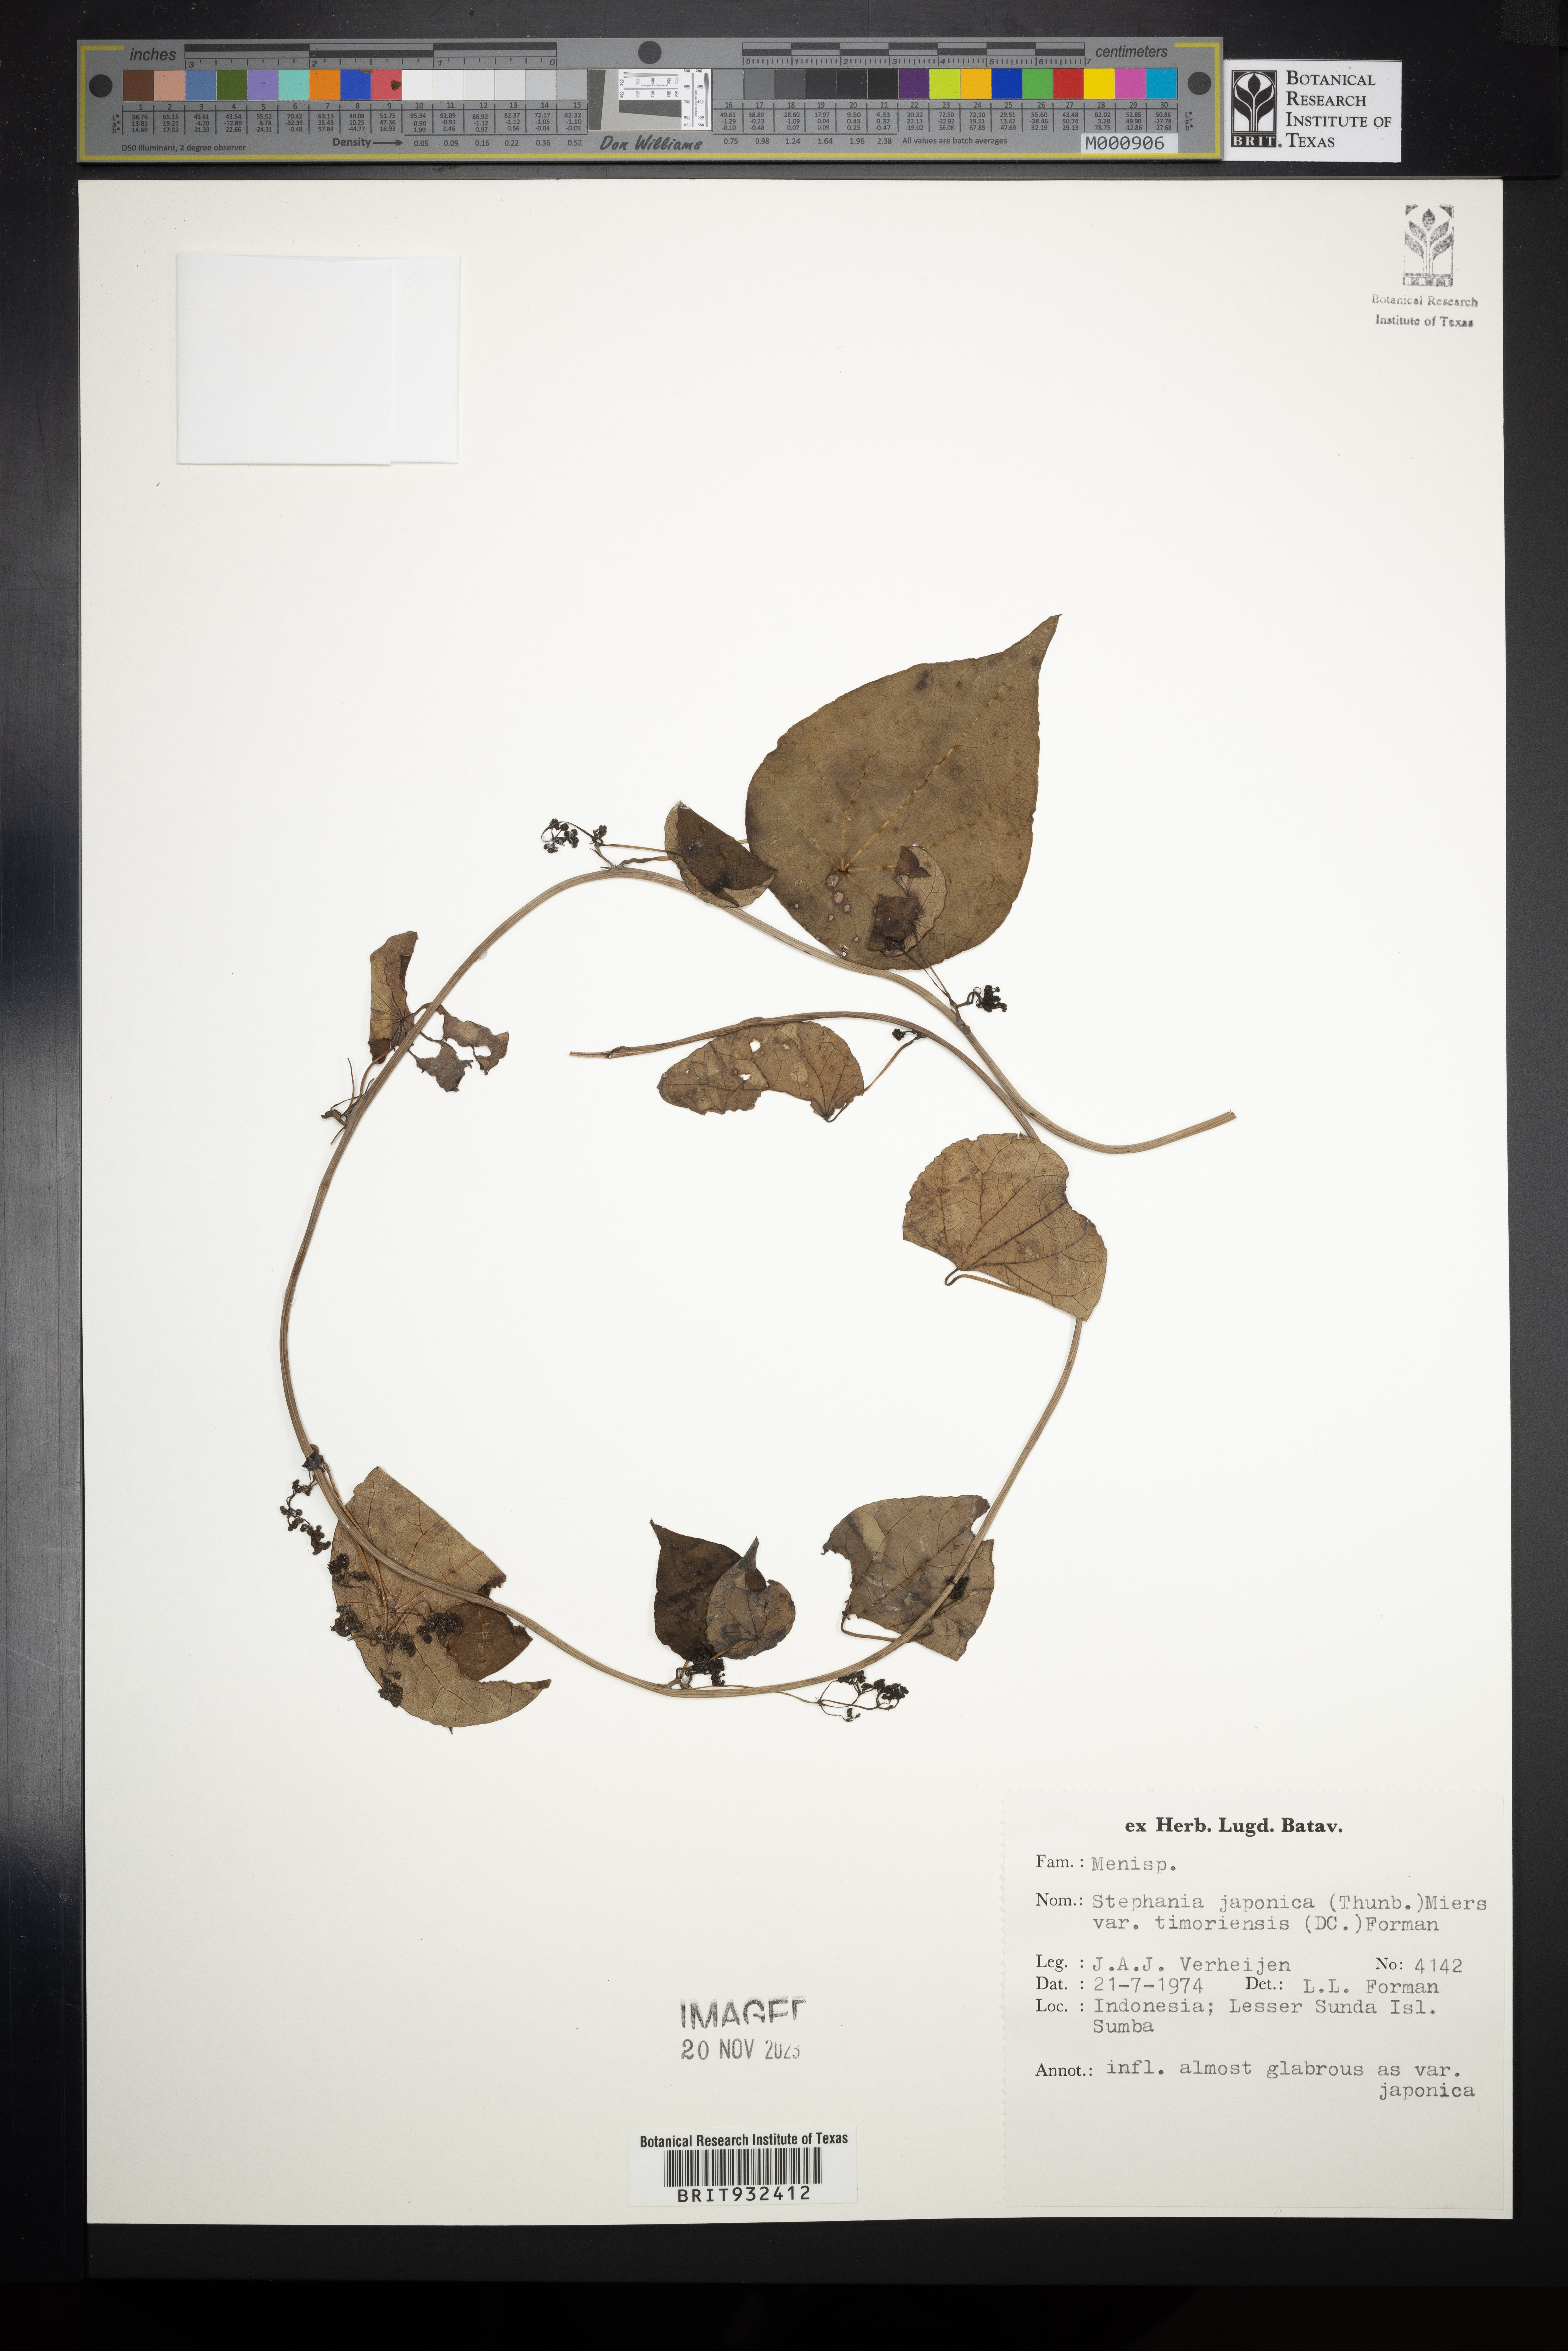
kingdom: Plantae
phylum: Tracheophyta
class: Magnoliopsida
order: Ranunculales
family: Menispermaceae
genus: Stephania
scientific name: Stephania japonica
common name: Snake vine
